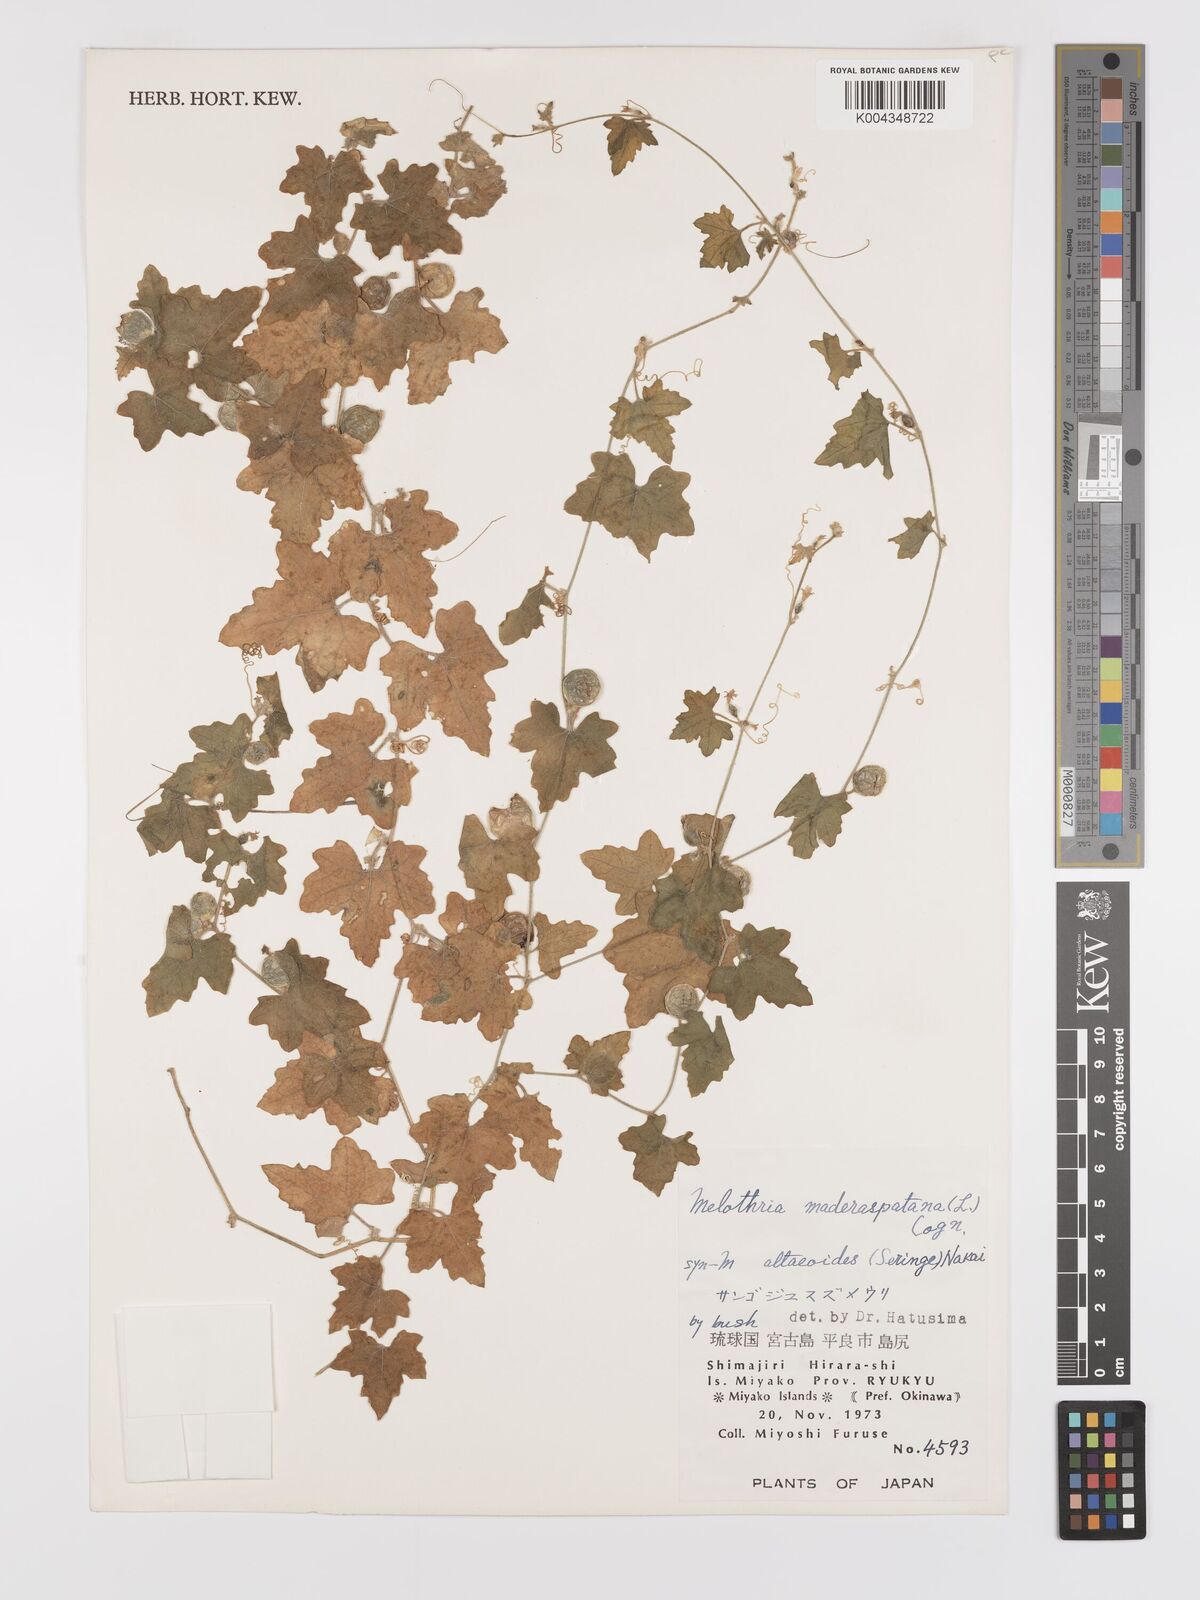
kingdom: Plantae
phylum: Tracheophyta
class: Magnoliopsida
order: Cucurbitales
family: Cucurbitaceae
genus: Cucumis
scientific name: Cucumis maderaspatanus
